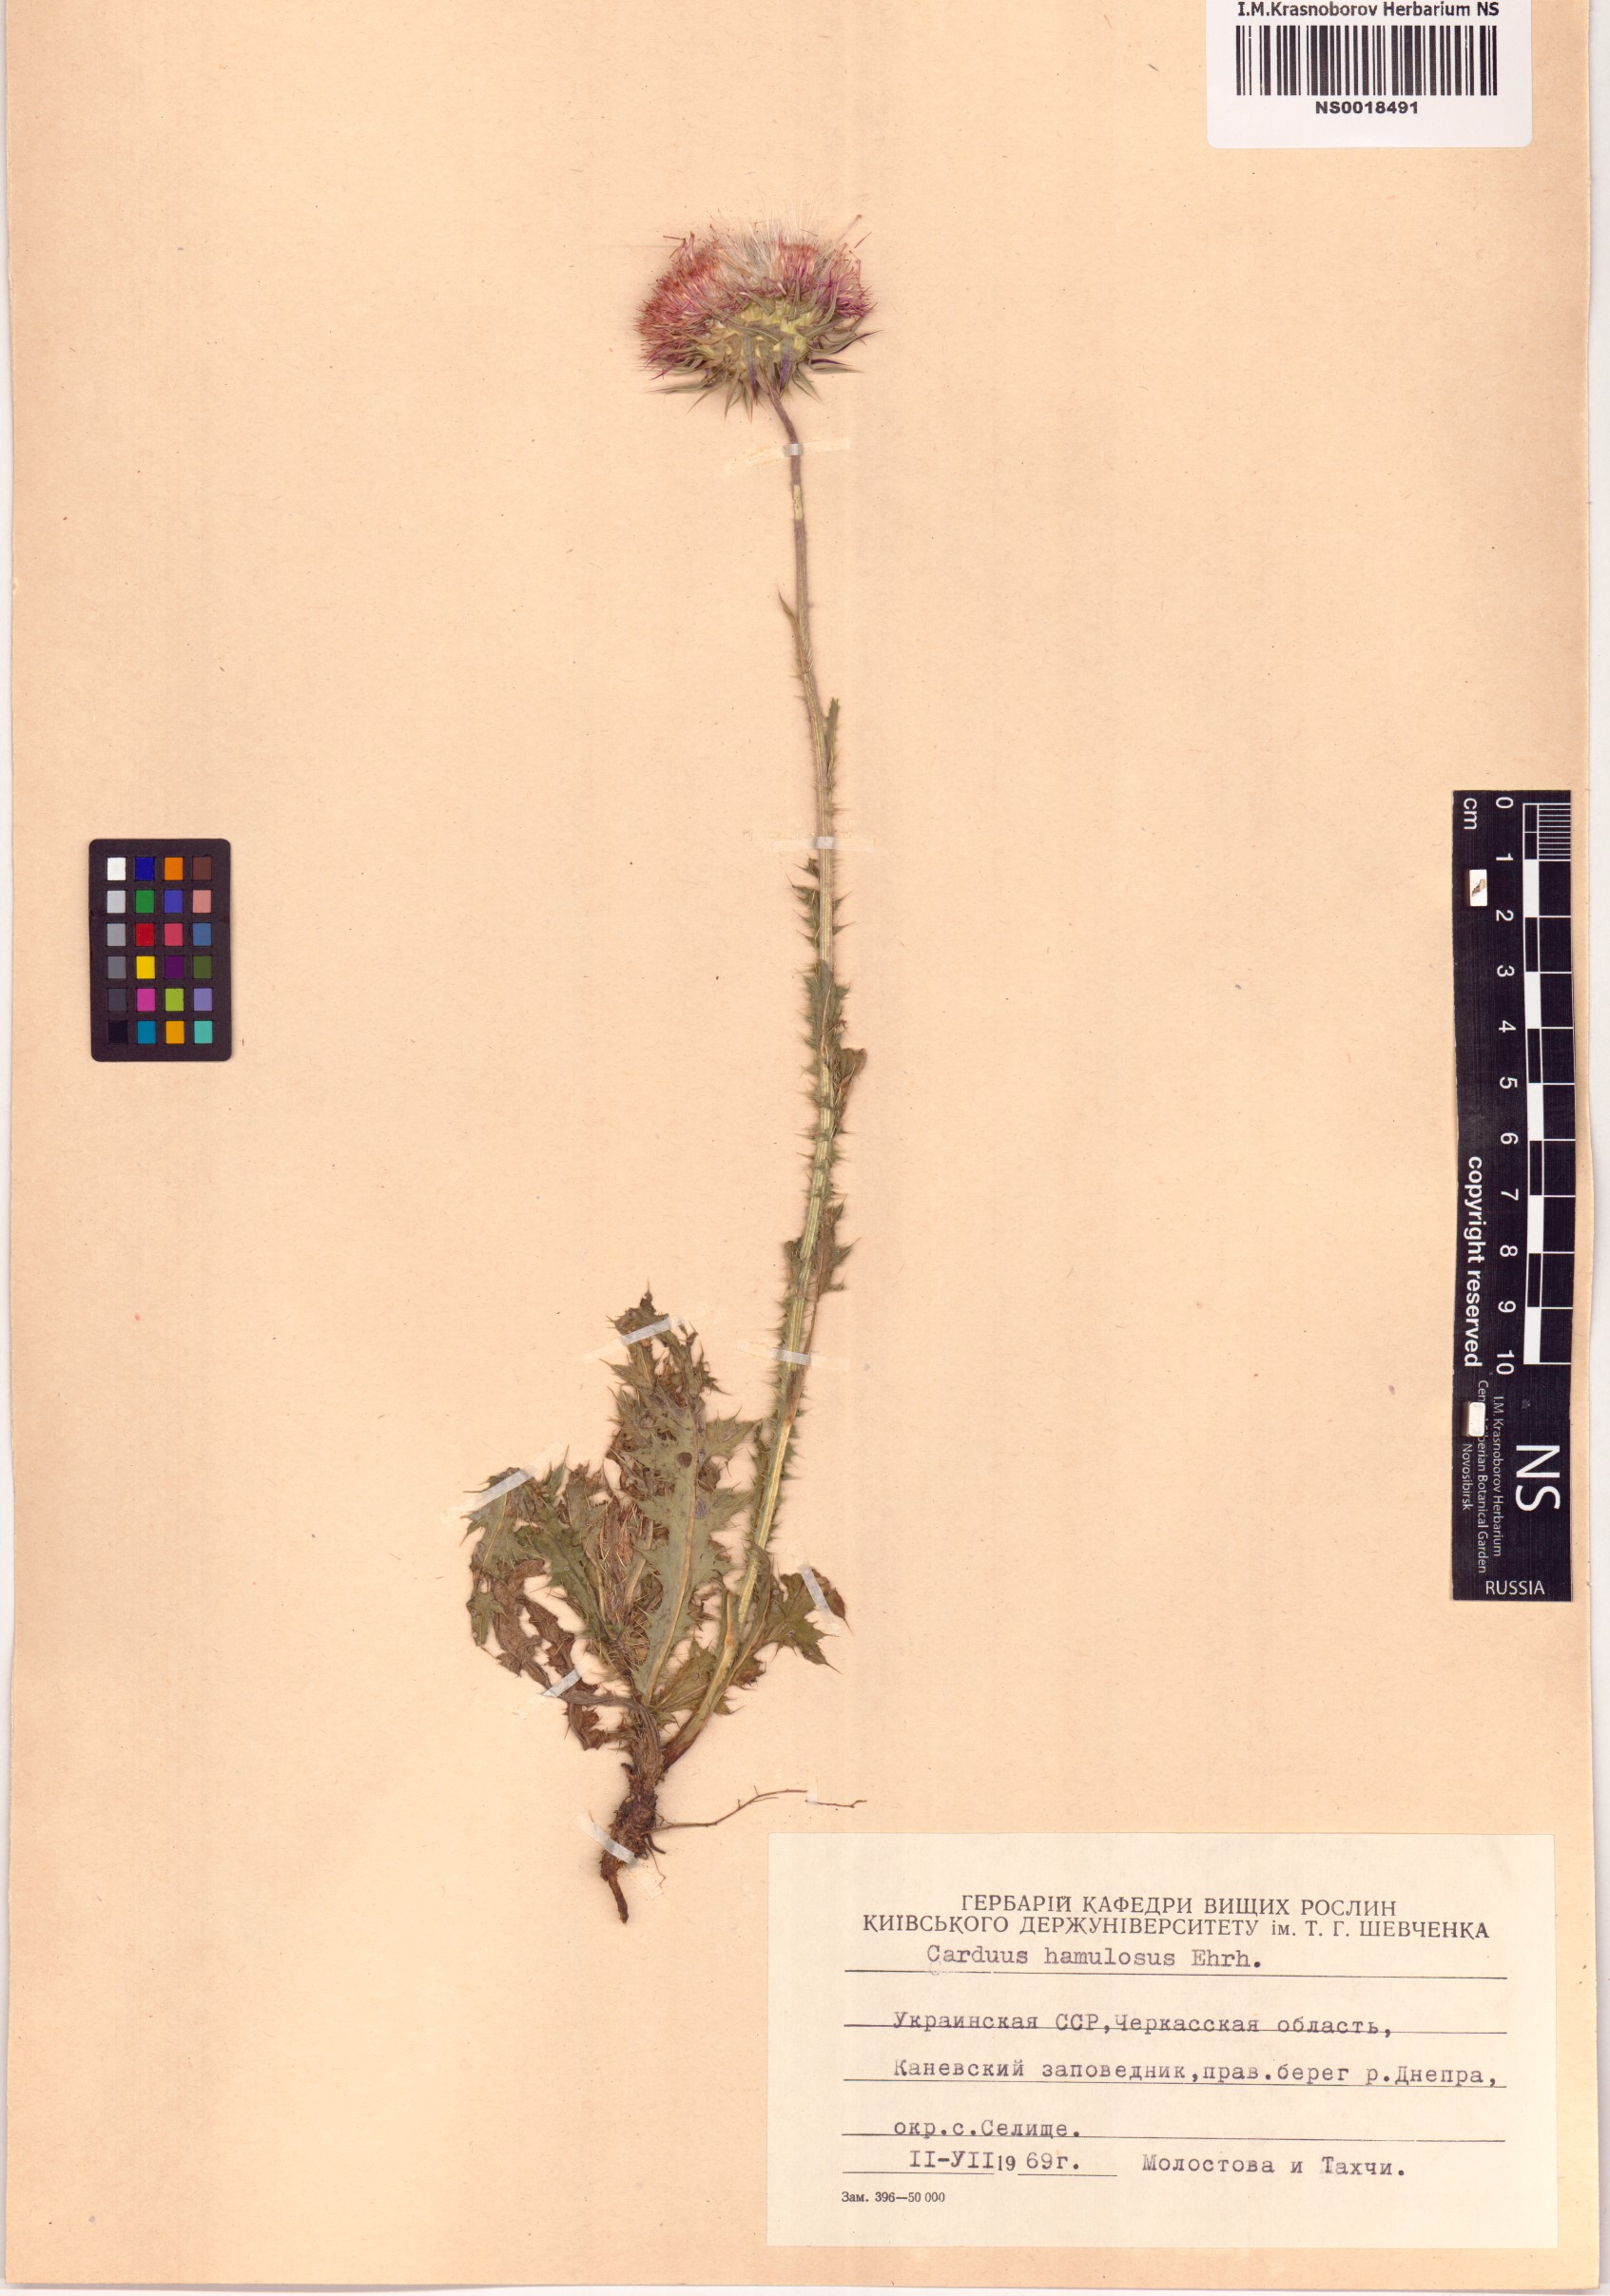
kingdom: Plantae
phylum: Tracheophyta
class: Magnoliopsida
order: Asterales
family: Asteraceae
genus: Carduus
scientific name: Carduus hamulosus
